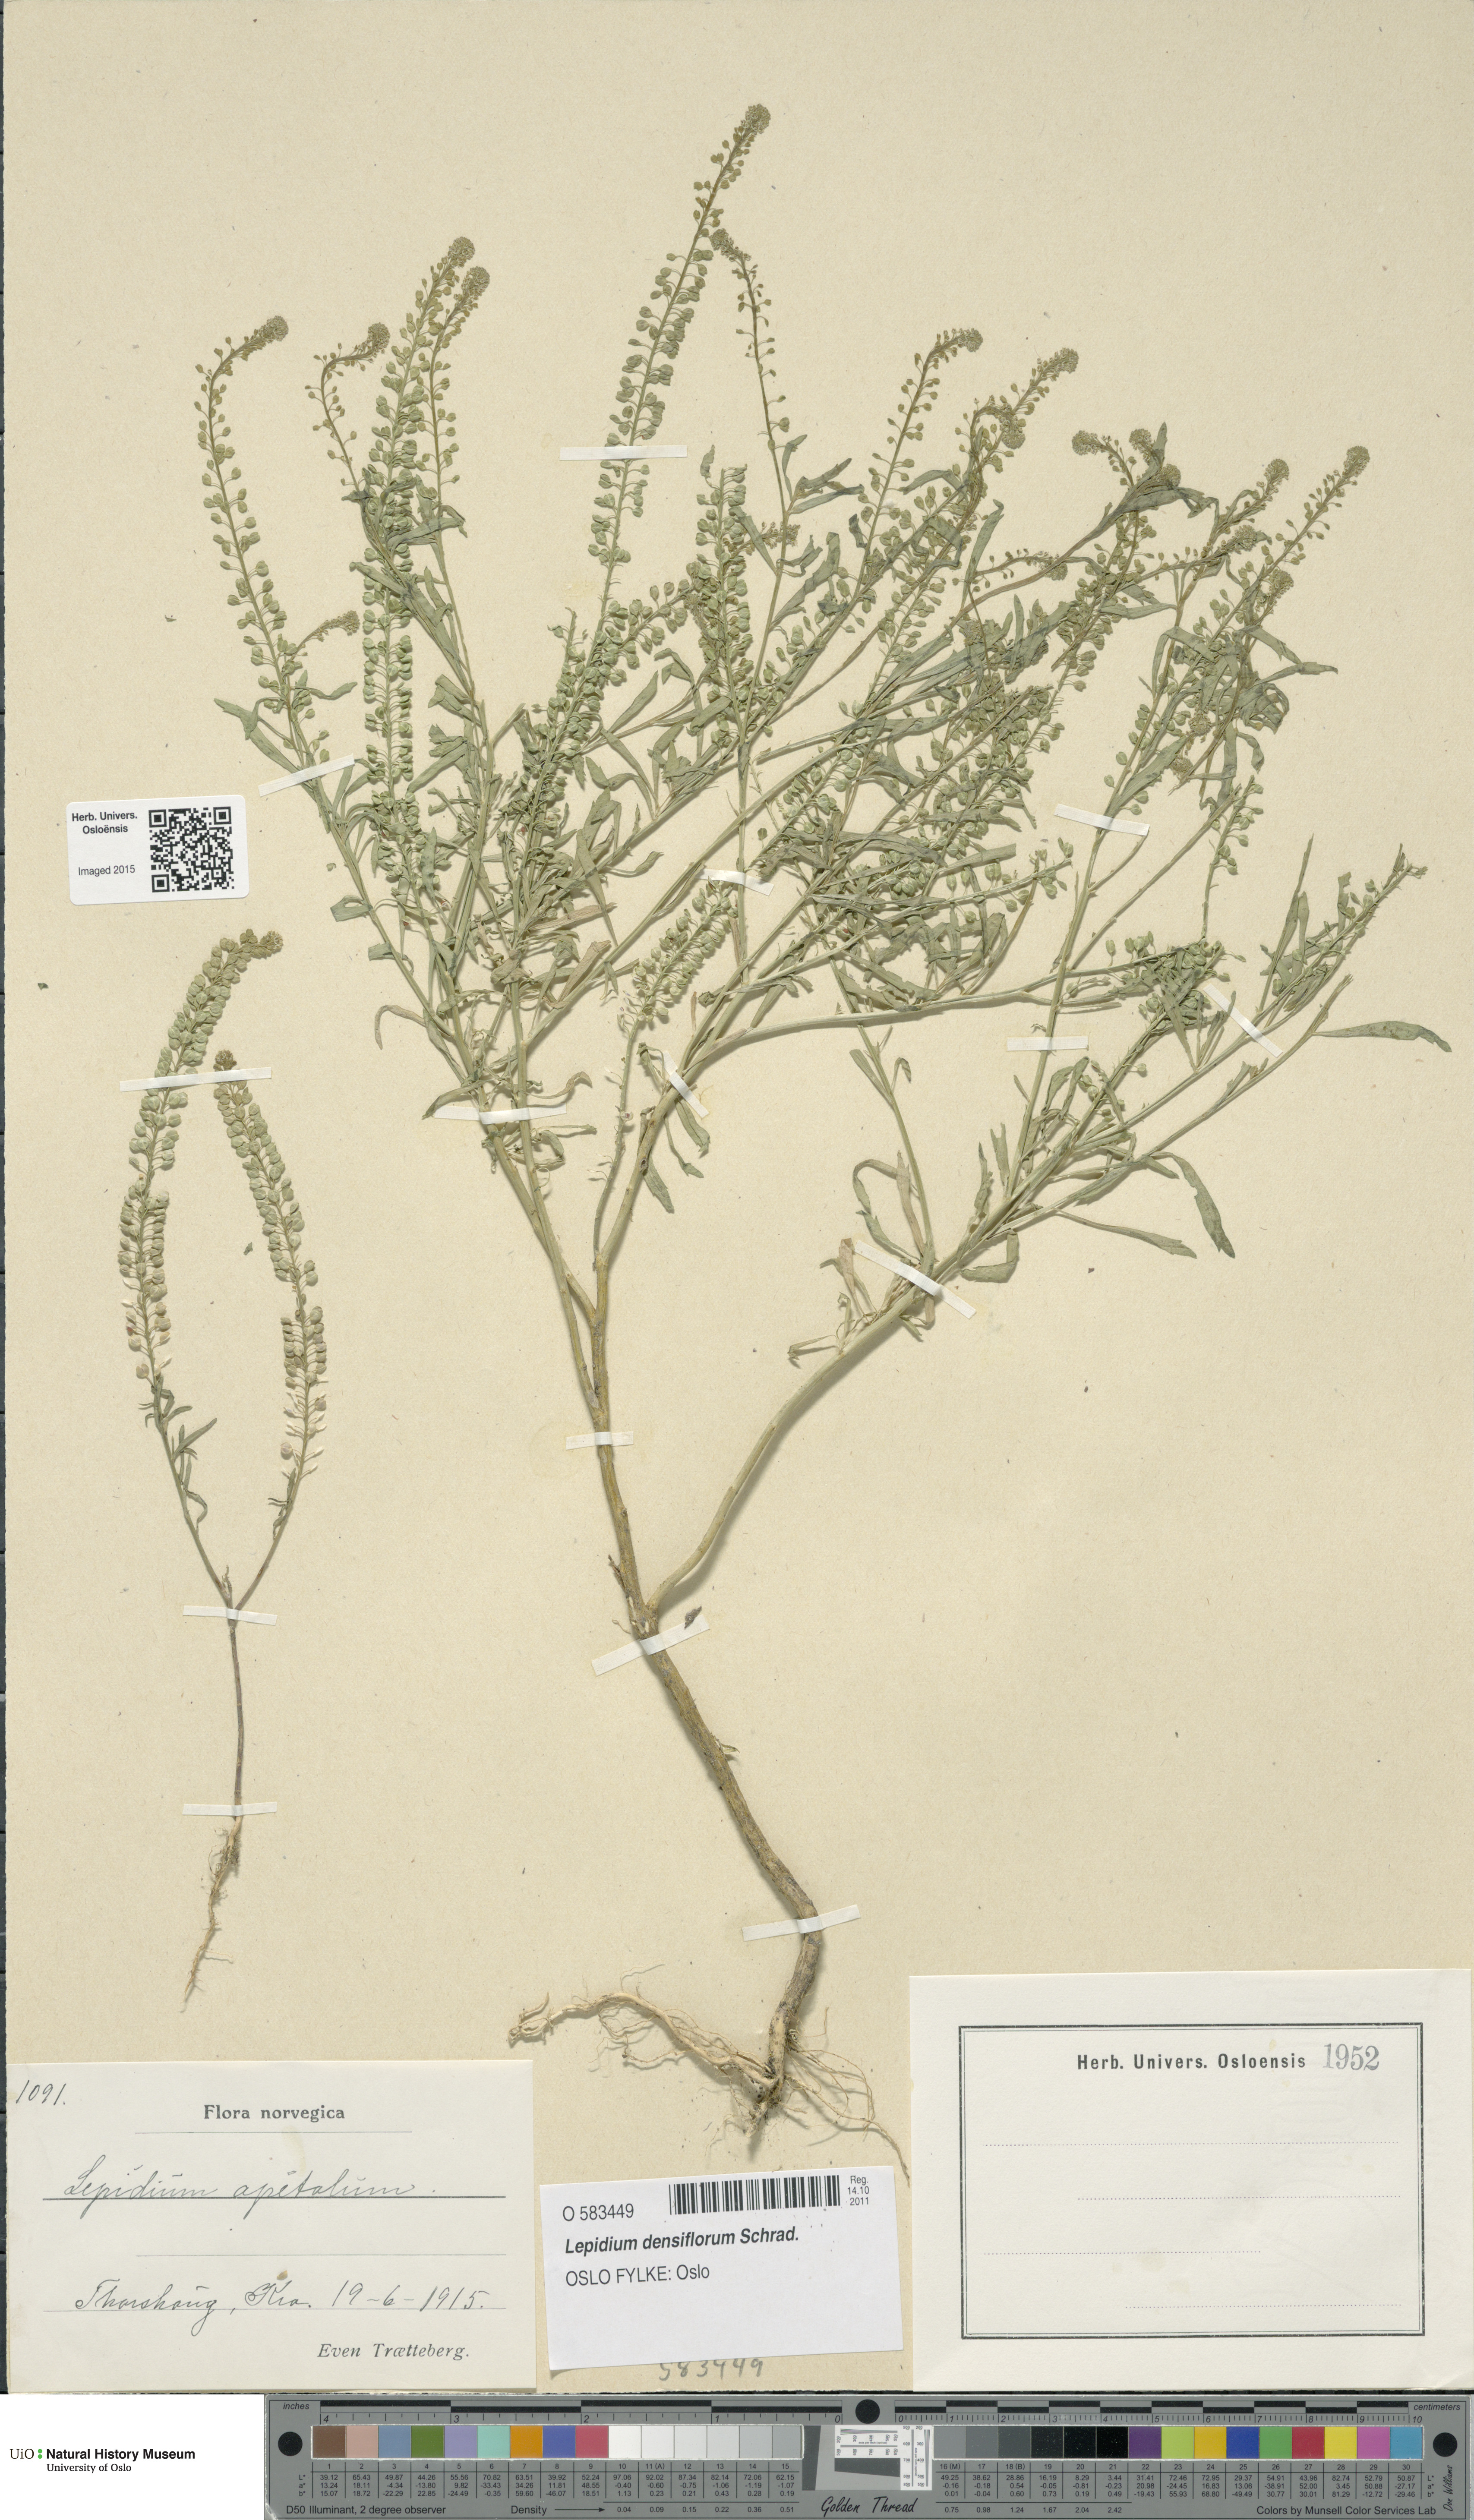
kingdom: Plantae
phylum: Tracheophyta
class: Magnoliopsida
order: Brassicales
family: Brassicaceae
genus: Lepidium
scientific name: Lepidium densiflorum
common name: Miner's pepperwort
